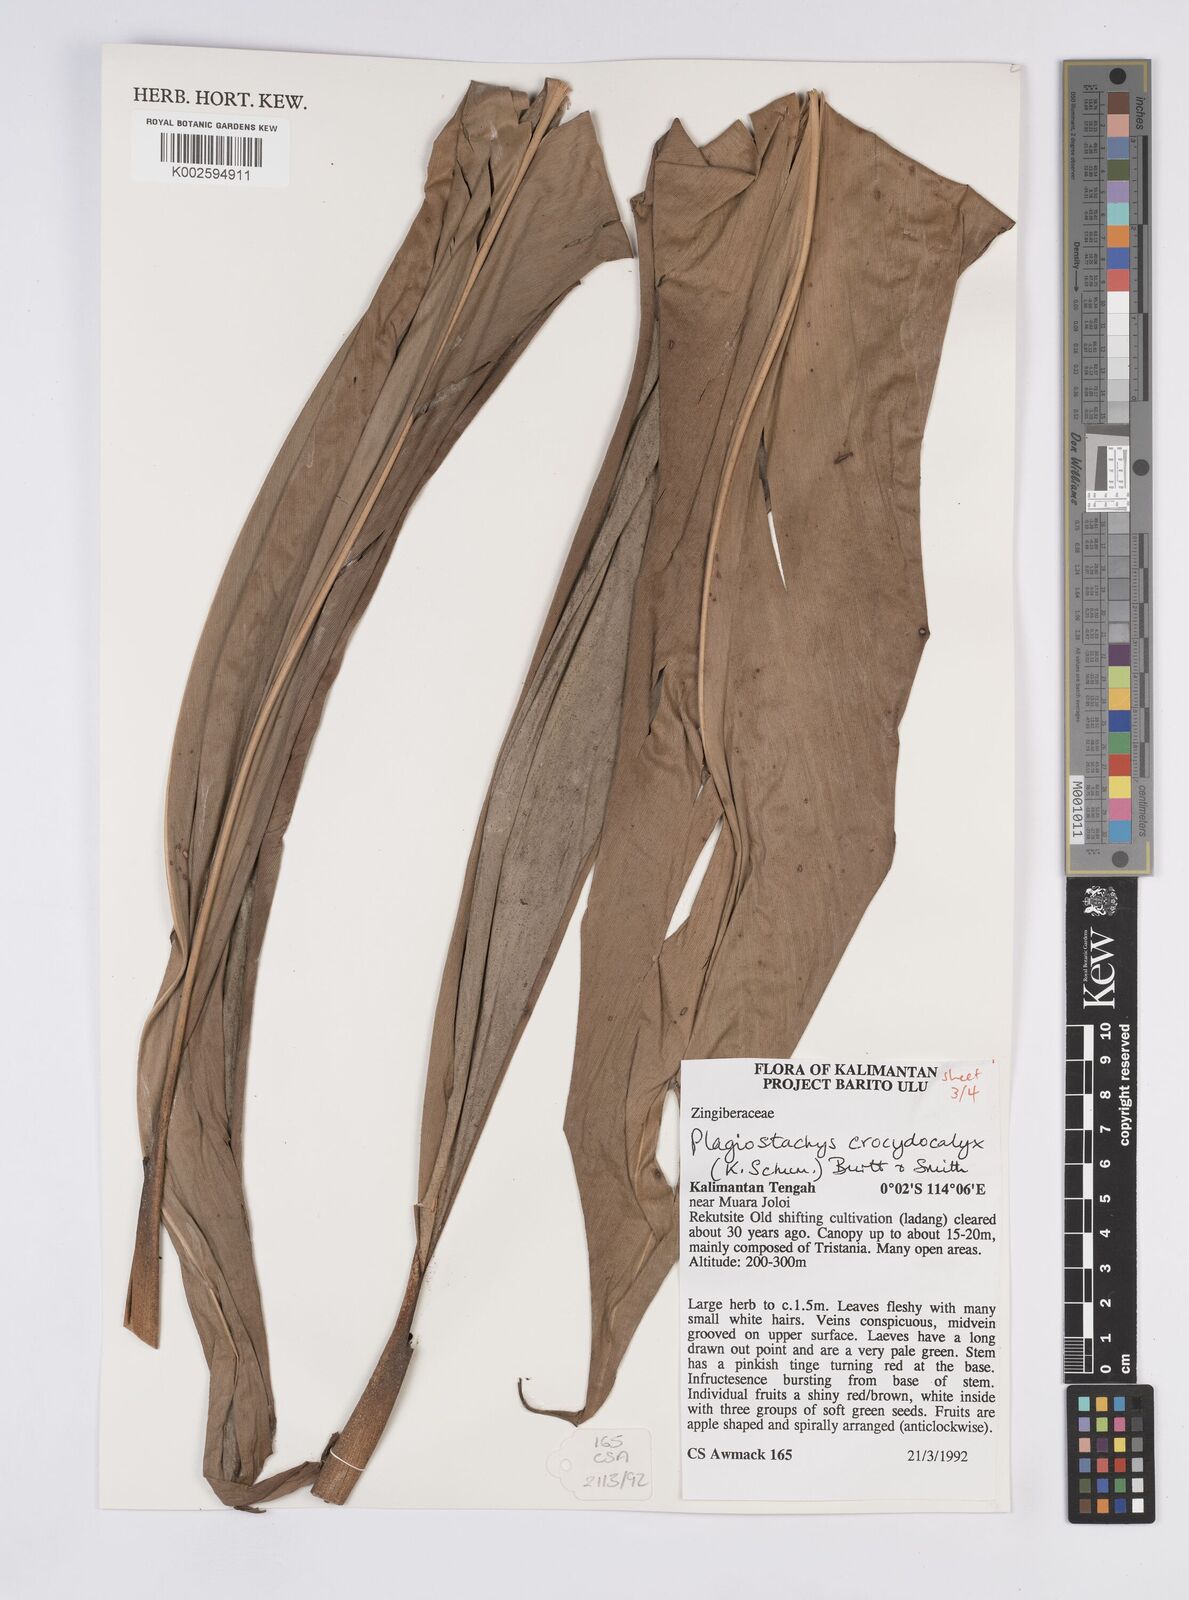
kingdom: Plantae
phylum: Tracheophyta
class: Liliopsida
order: Zingiberales
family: Zingiberaceae
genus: Plagiostachys
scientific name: Plagiostachys crocydocalyx
